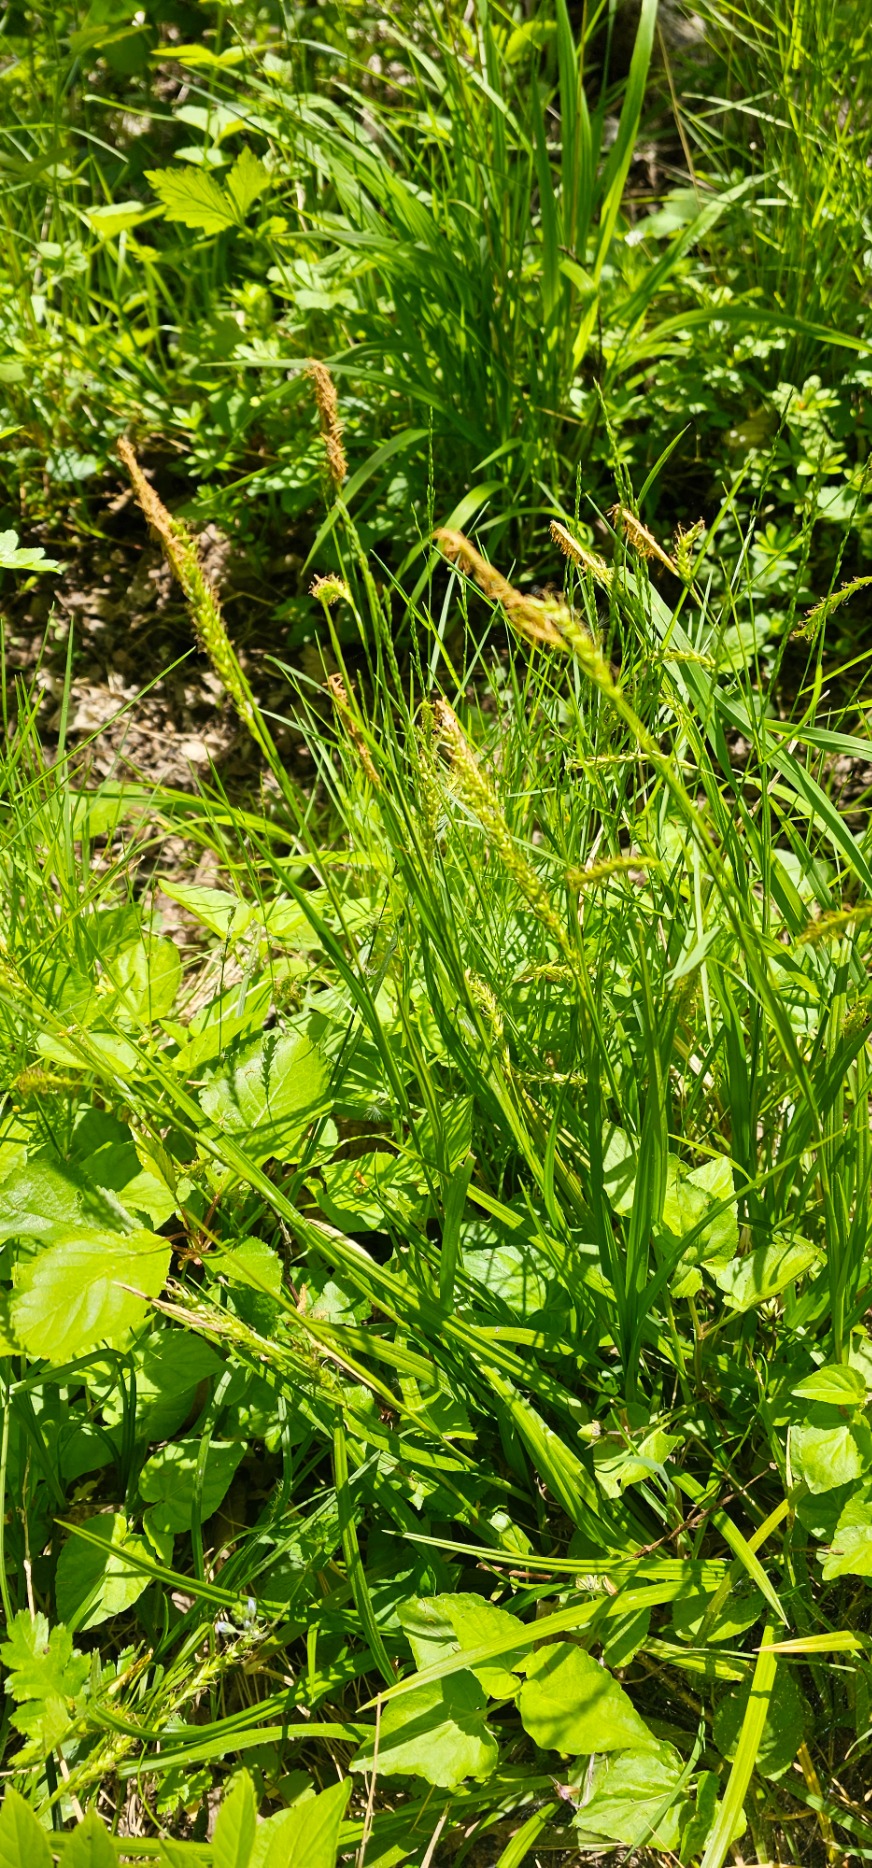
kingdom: Plantae
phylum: Tracheophyta
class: Liliopsida
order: Poales
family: Cyperaceae
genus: Carex
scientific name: Carex sylvatica
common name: Skov-star
